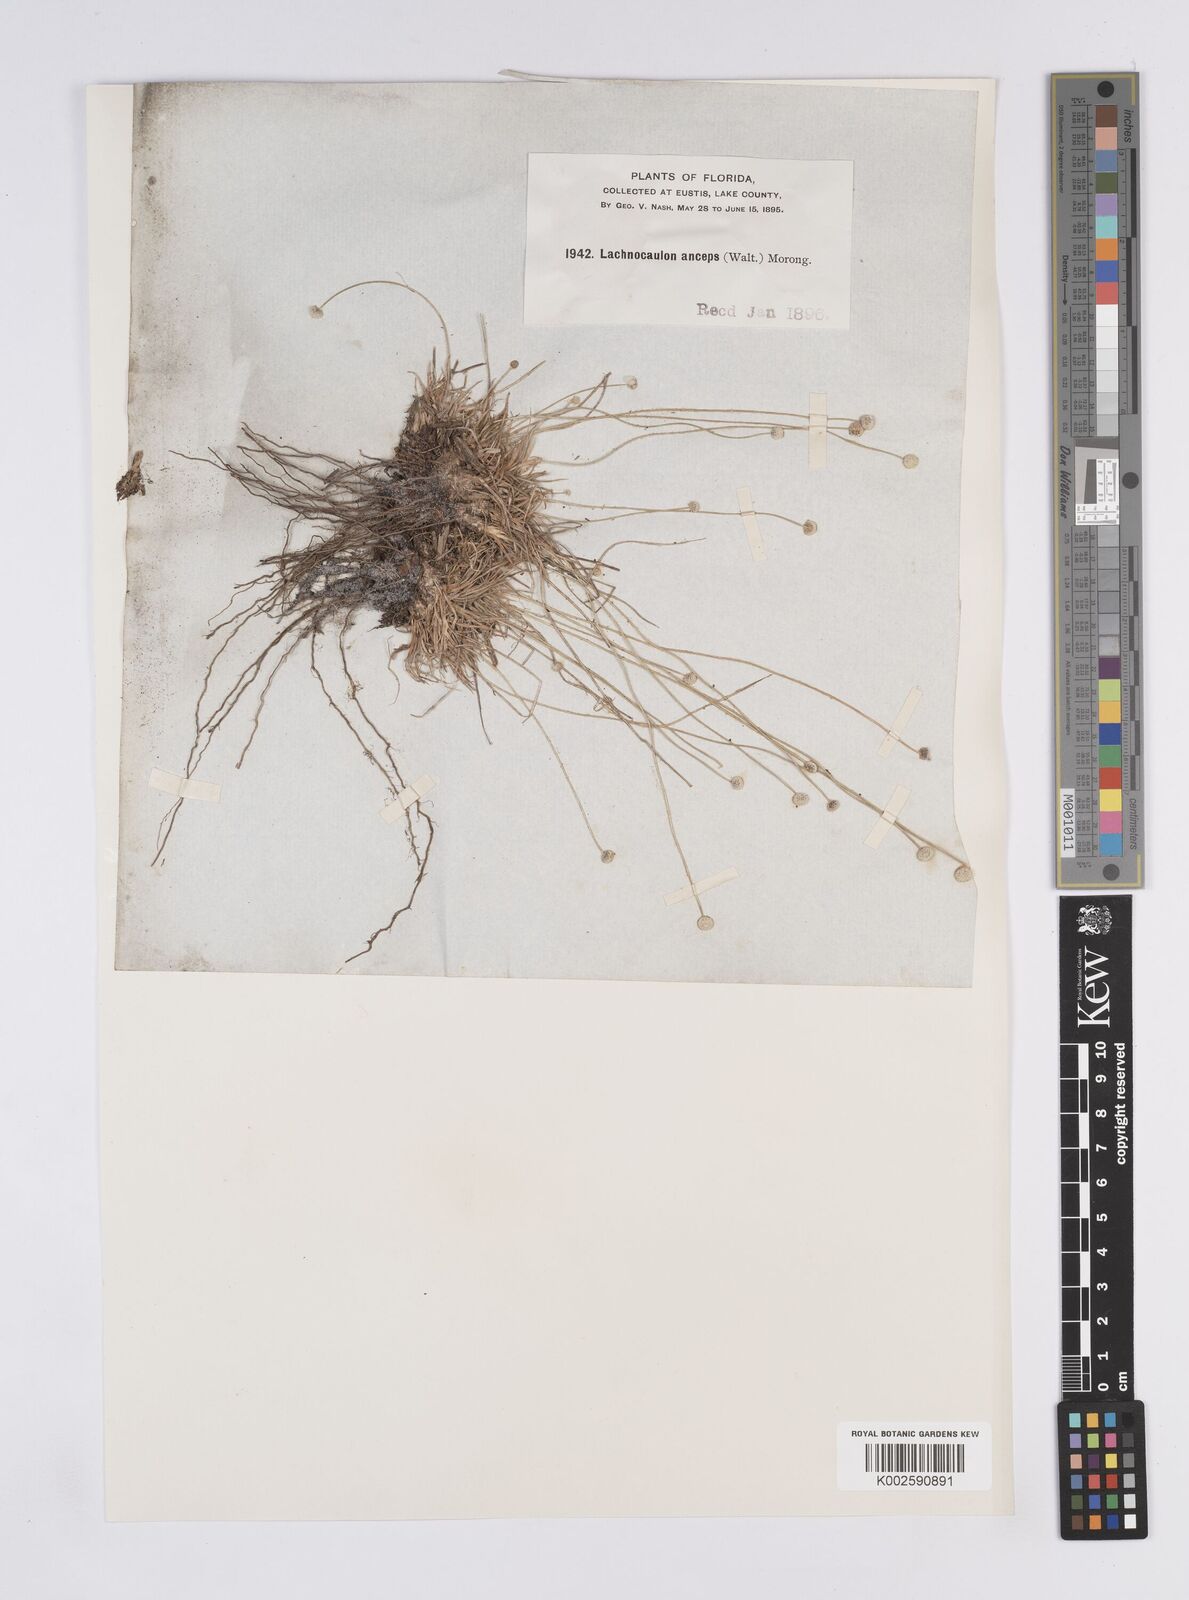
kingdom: Plantae
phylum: Tracheophyta
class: Liliopsida
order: Poales
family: Eriocaulaceae
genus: Paepalanthus
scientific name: Paepalanthus anceps
